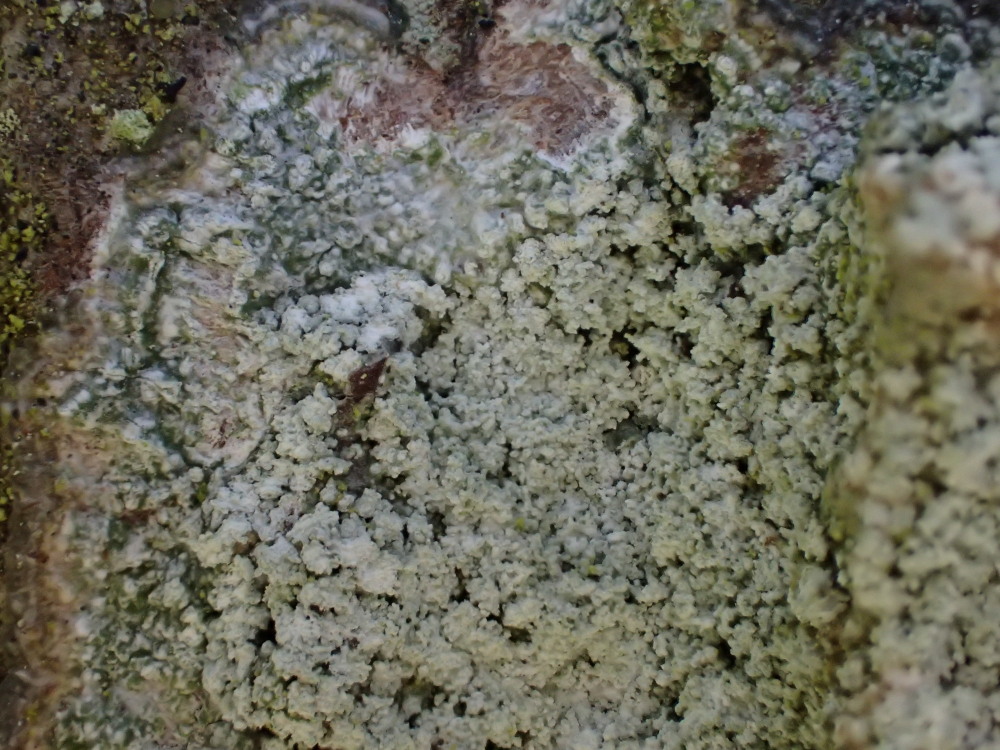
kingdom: Fungi
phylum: Ascomycota
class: Lecanoromycetes
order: Pertusariales
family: Pertusariaceae
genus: Lepra
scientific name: Lepra albescens
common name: hvidmelet prikvortelav
